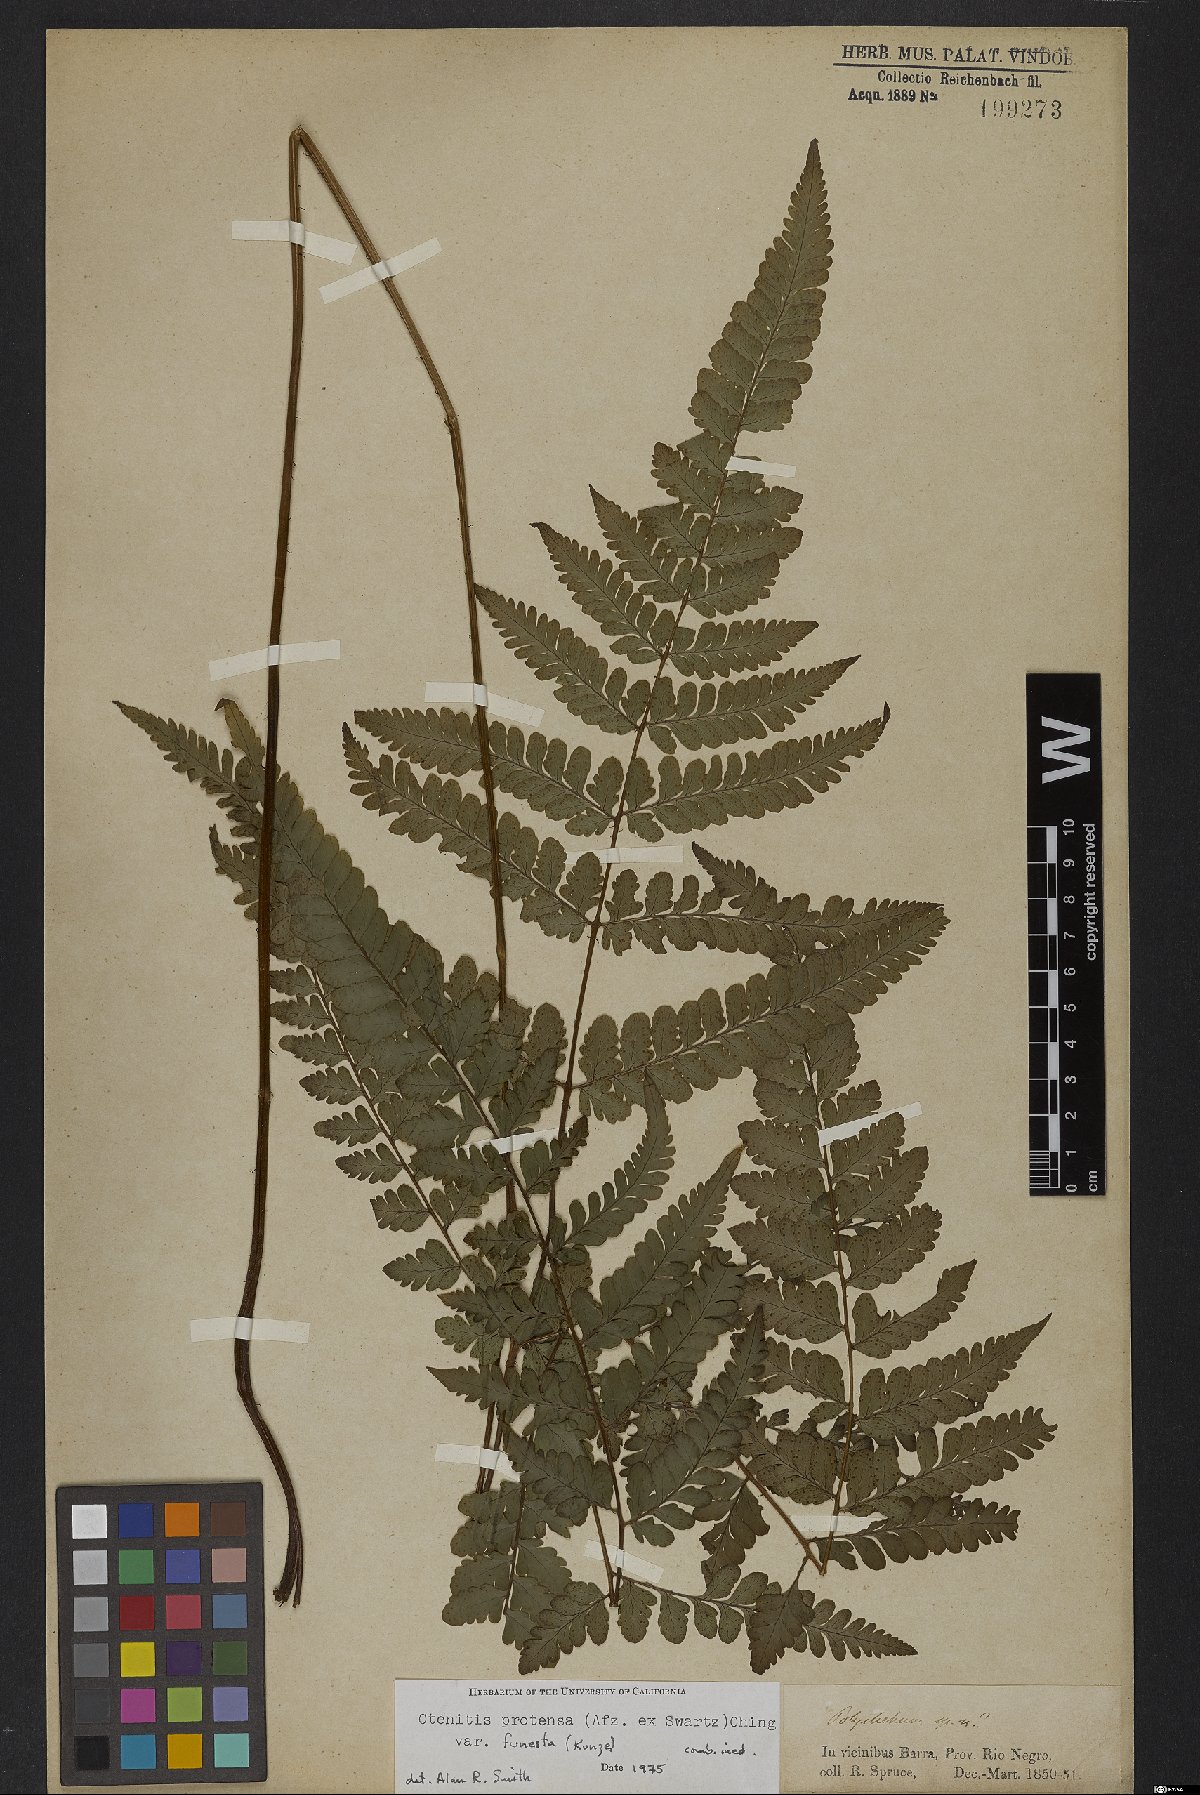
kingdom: Plantae
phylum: Tracheophyta
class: Polypodiopsida
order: Polypodiales
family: Tectariaceae
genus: Triplophyllum
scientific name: Triplophyllum protensum
